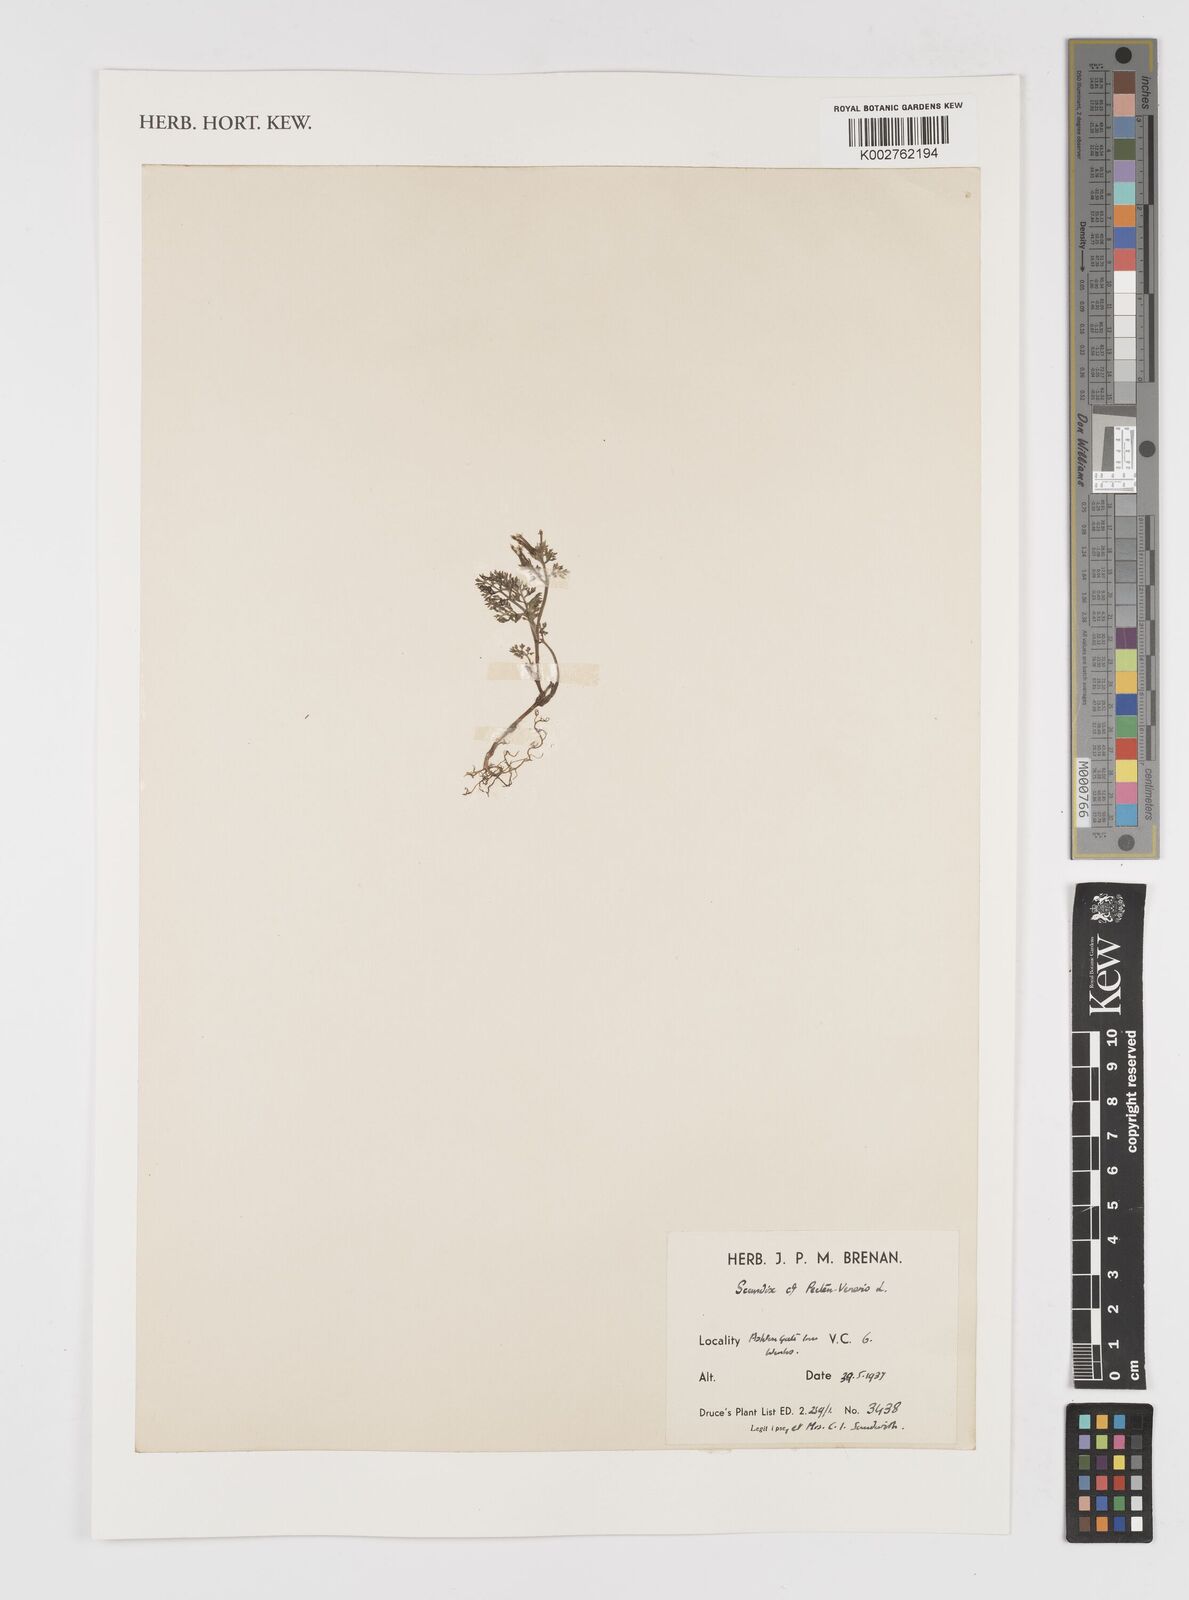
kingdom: Plantae
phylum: Tracheophyta
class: Magnoliopsida
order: Apiales
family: Apiaceae
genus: Scandix
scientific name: Scandix pecten-veneris
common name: Shepherd's-needle
